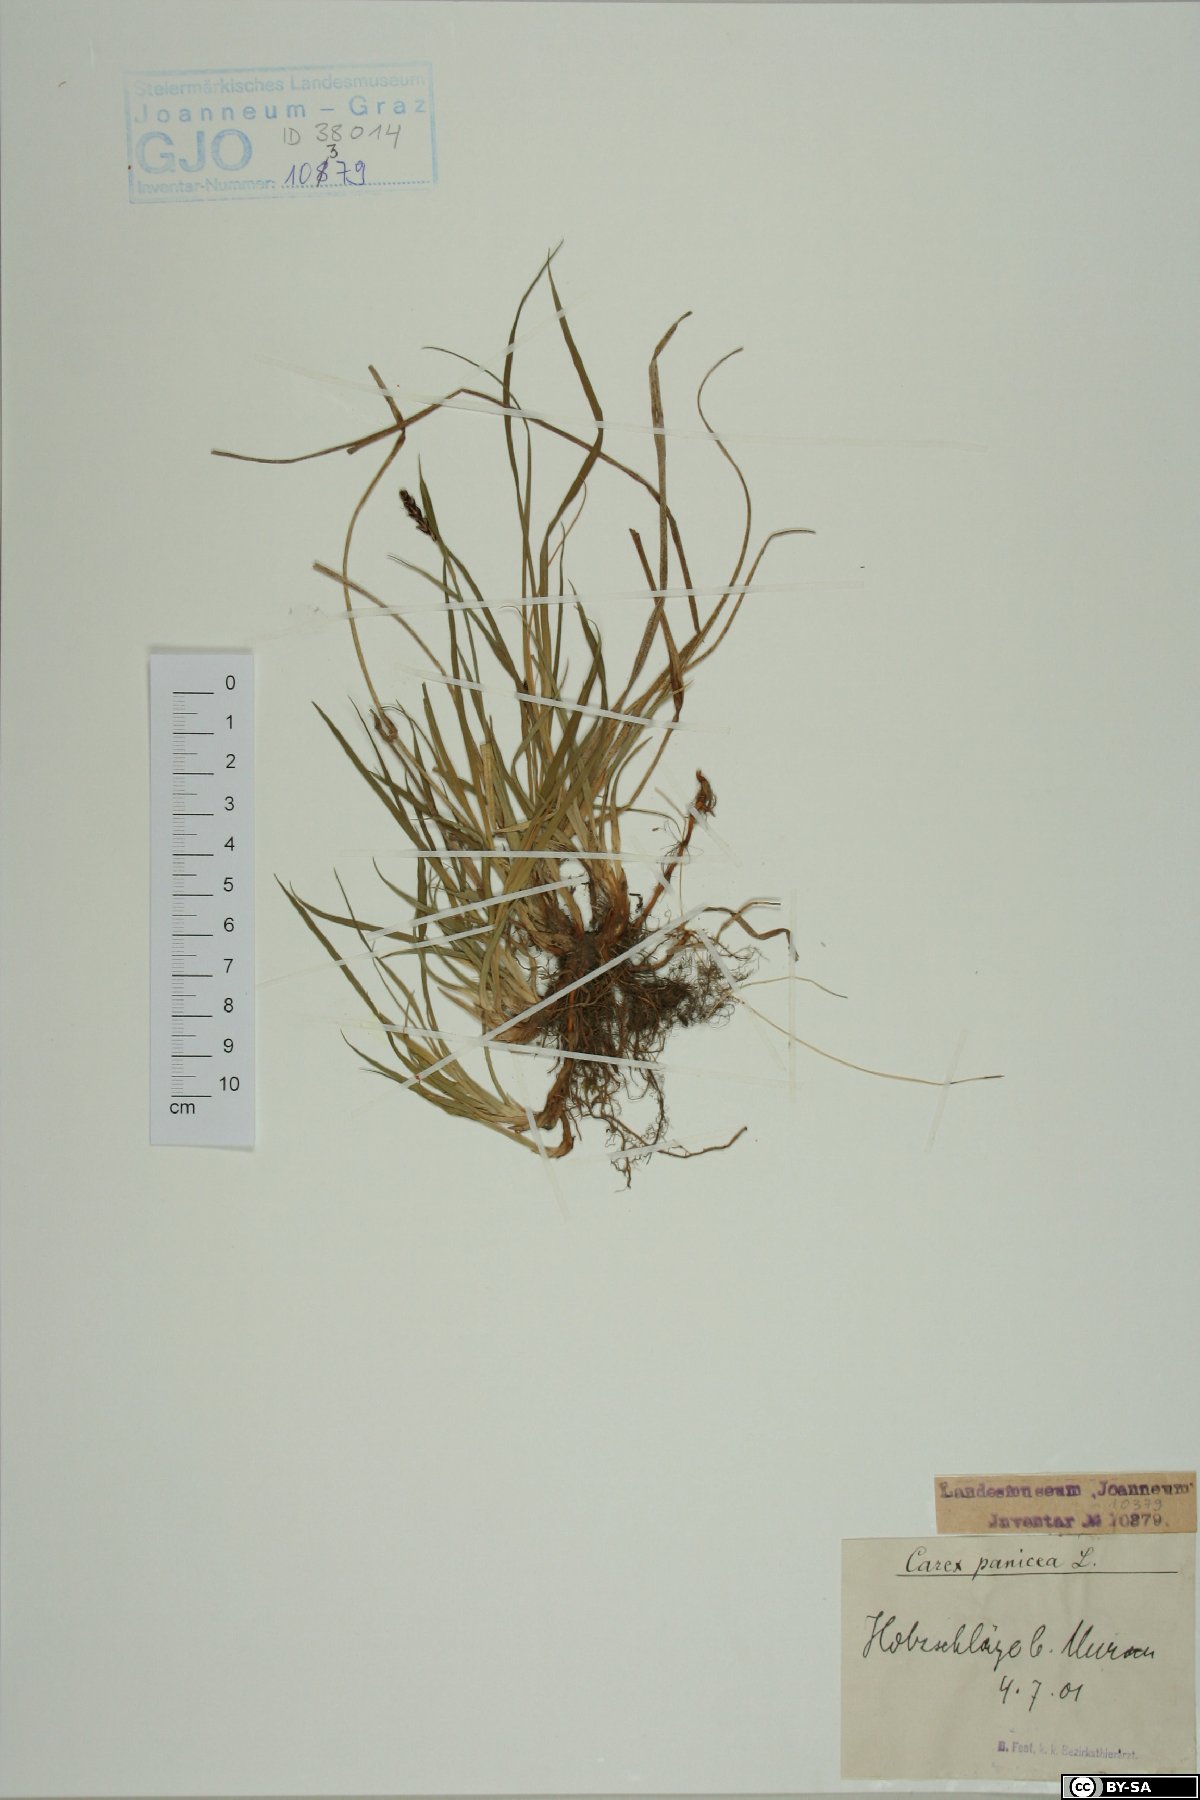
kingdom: Plantae
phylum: Tracheophyta
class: Liliopsida
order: Poales
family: Cyperaceae
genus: Carex
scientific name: Carex panicea
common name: Carnation sedge
